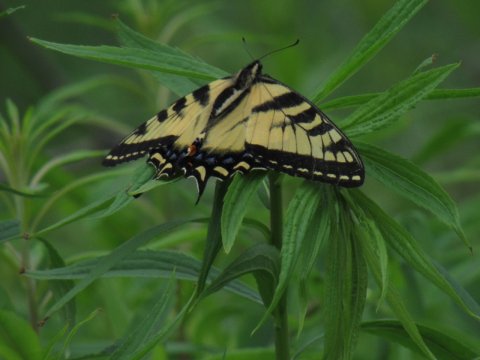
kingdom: Animalia
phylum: Arthropoda
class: Insecta
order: Lepidoptera
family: Papilionidae
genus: Pterourus
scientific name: Pterourus
